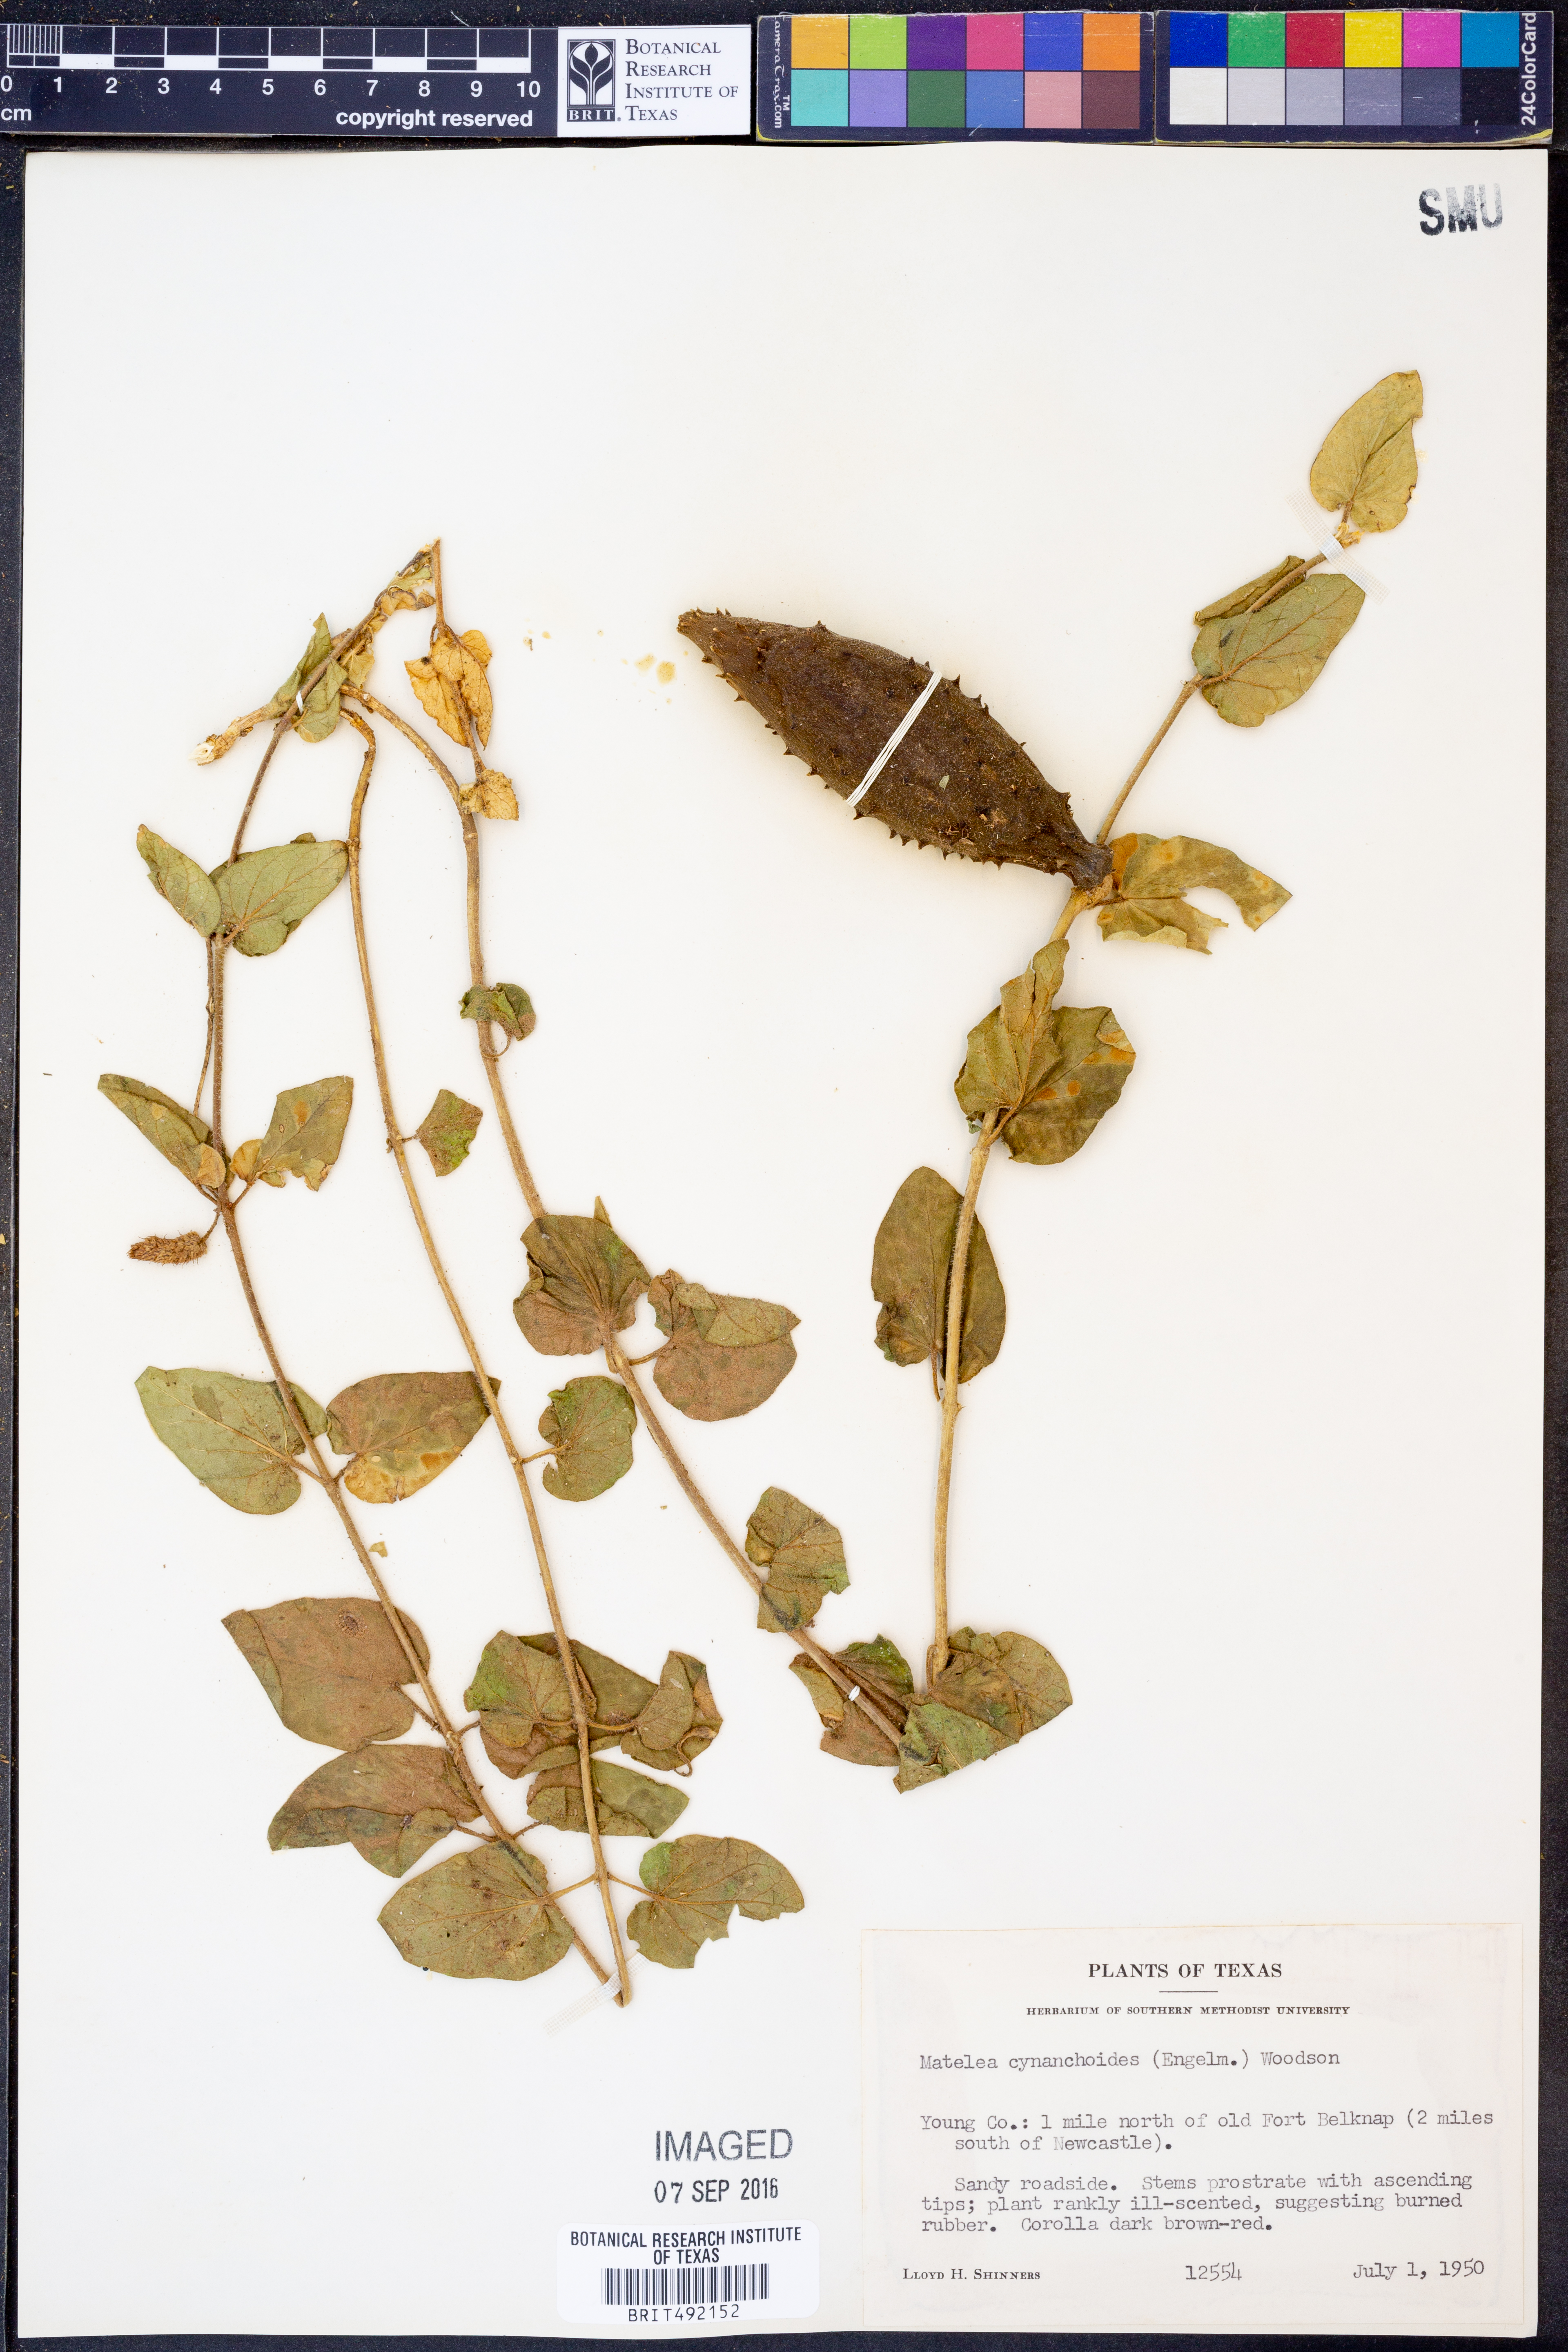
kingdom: Plantae
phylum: Tracheophyta
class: Magnoliopsida
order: Gentianales
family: Apocynaceae
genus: Matelea
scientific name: Matelea cynanchoides
